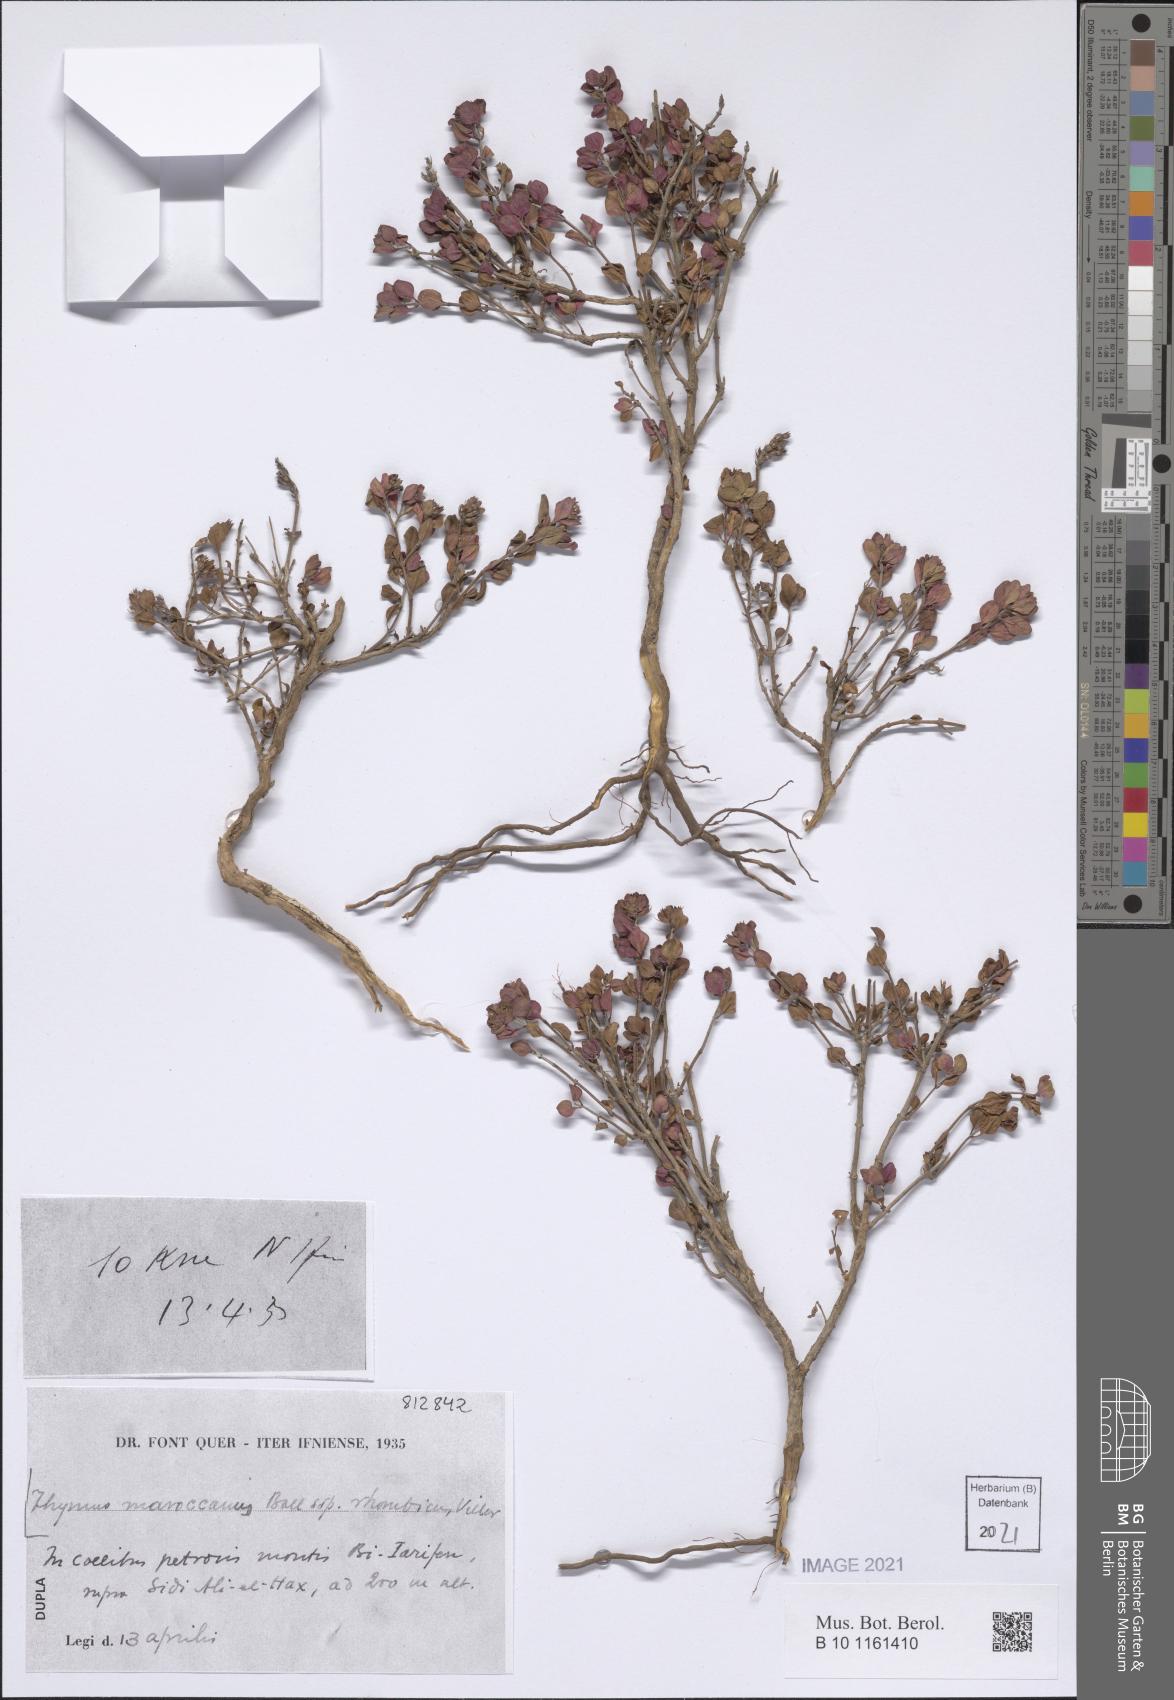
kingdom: Plantae
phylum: Tracheophyta
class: Magnoliopsida
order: Lamiales
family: Lamiaceae
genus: Thymus
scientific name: Thymus maroccanus
